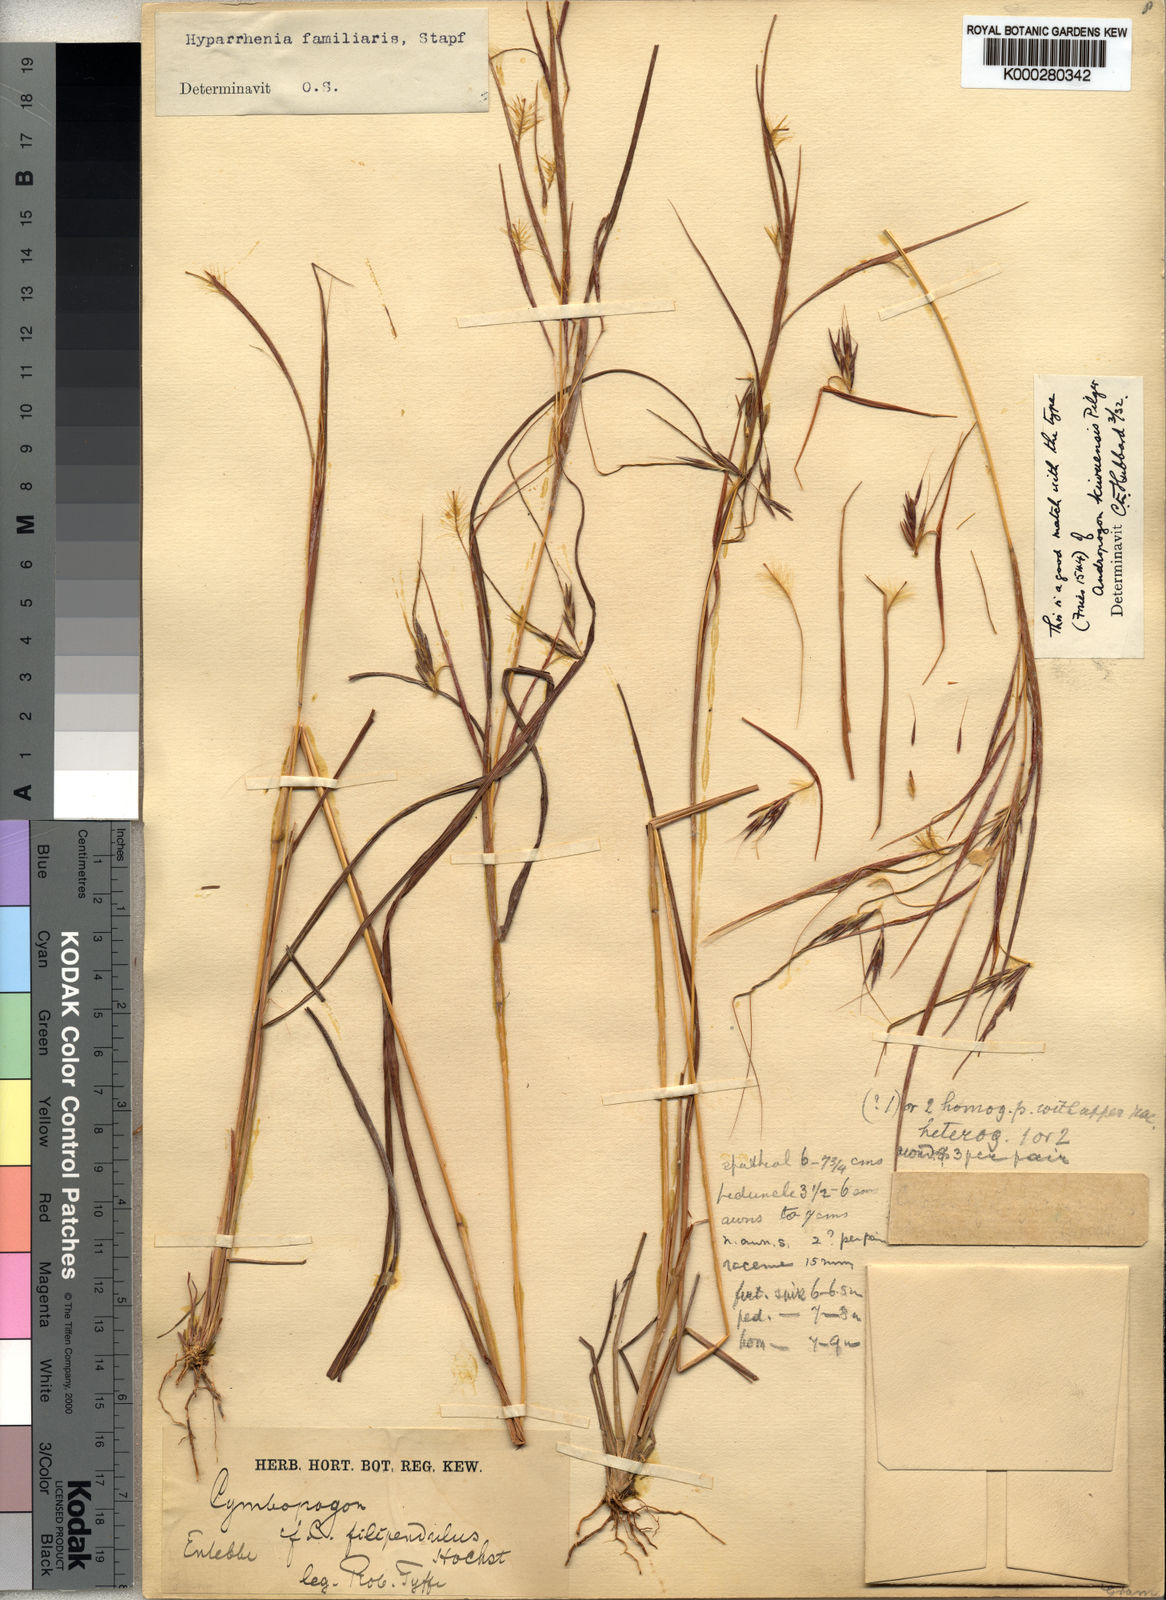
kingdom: Plantae
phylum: Tracheophyta
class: Liliopsida
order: Poales
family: Poaceae
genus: Hyparrhenia
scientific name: Hyparrhenia familiaris
